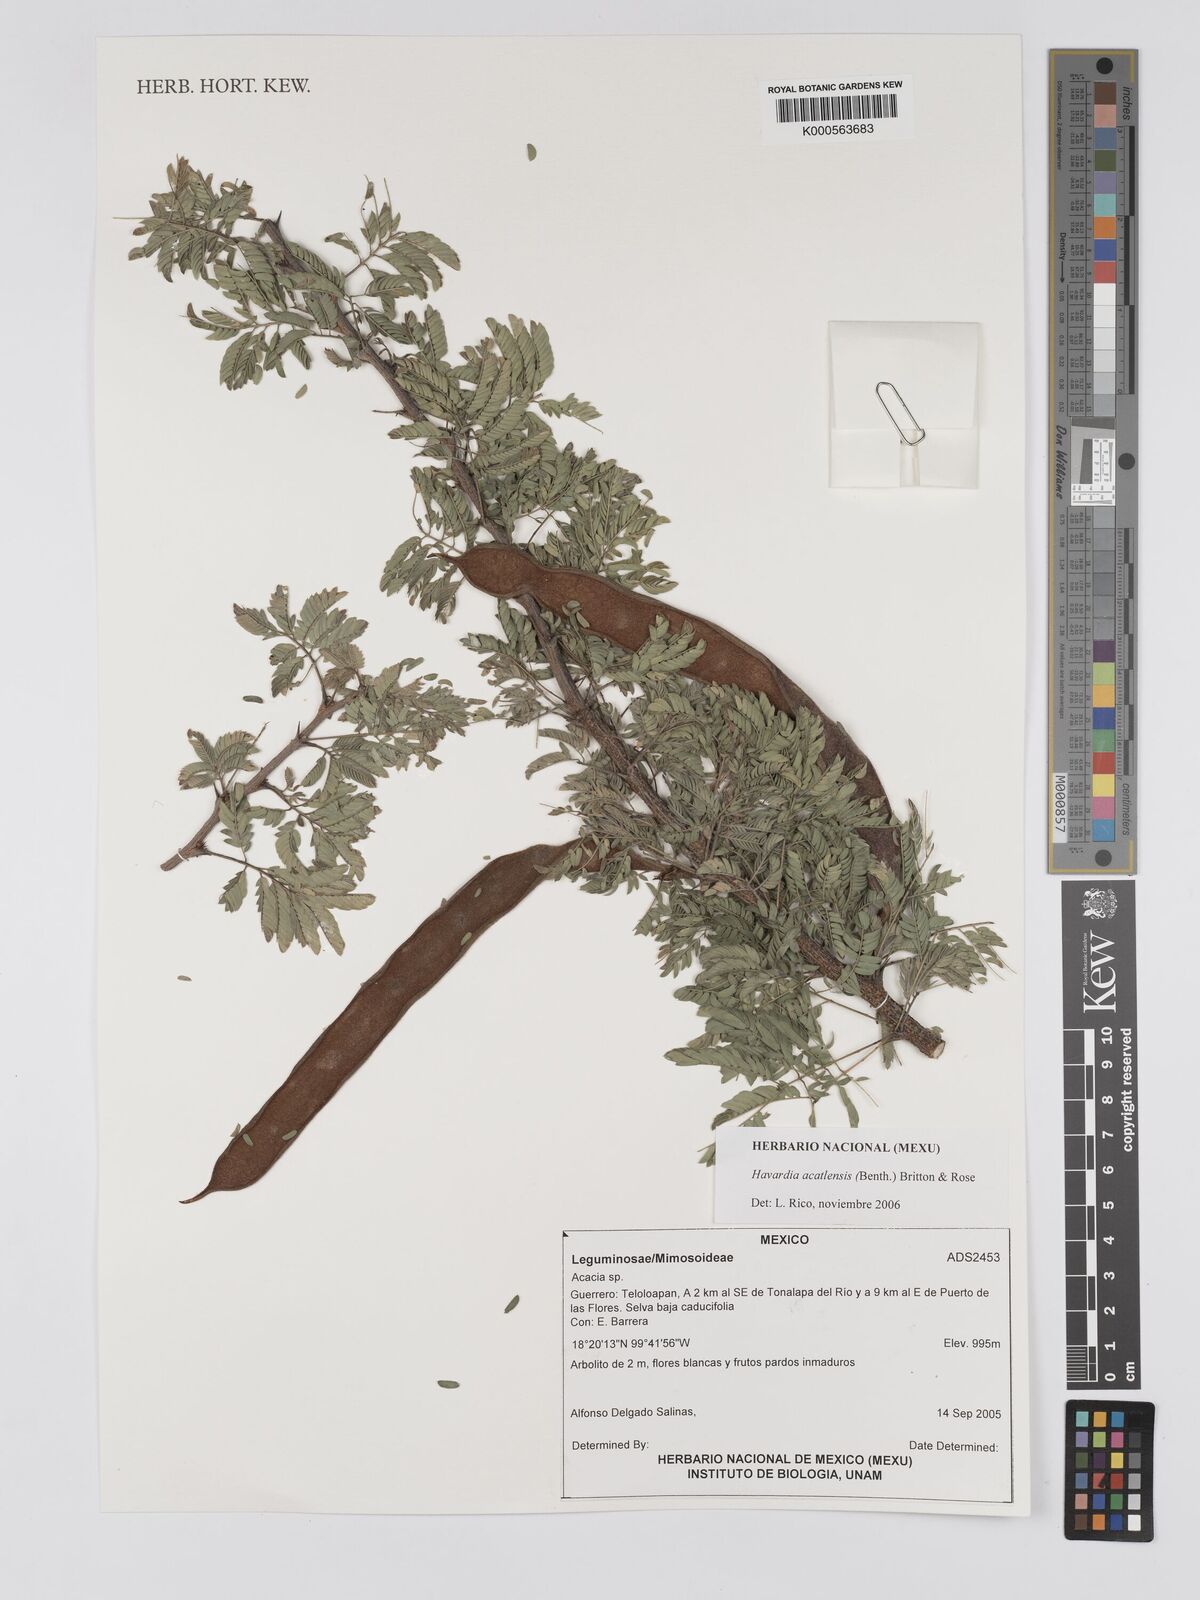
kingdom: Plantae
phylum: Tracheophyta
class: Magnoliopsida
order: Fabales
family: Fabaceae
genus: Havardia
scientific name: Havardia acatlensis
